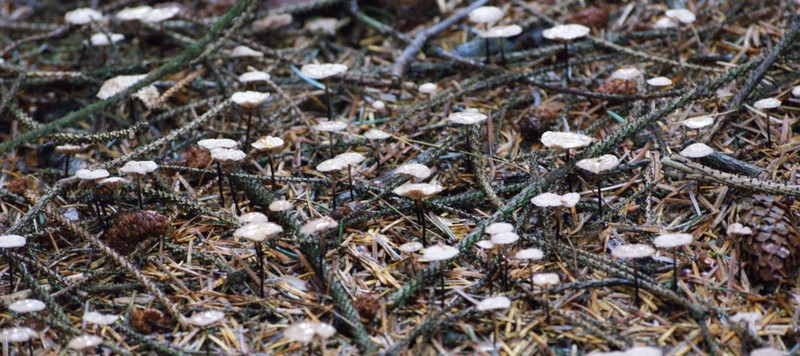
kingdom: Fungi
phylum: Basidiomycota
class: Agaricomycetes
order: Agaricales
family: Omphalotaceae
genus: Paragymnopus
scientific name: Paragymnopus perforans
